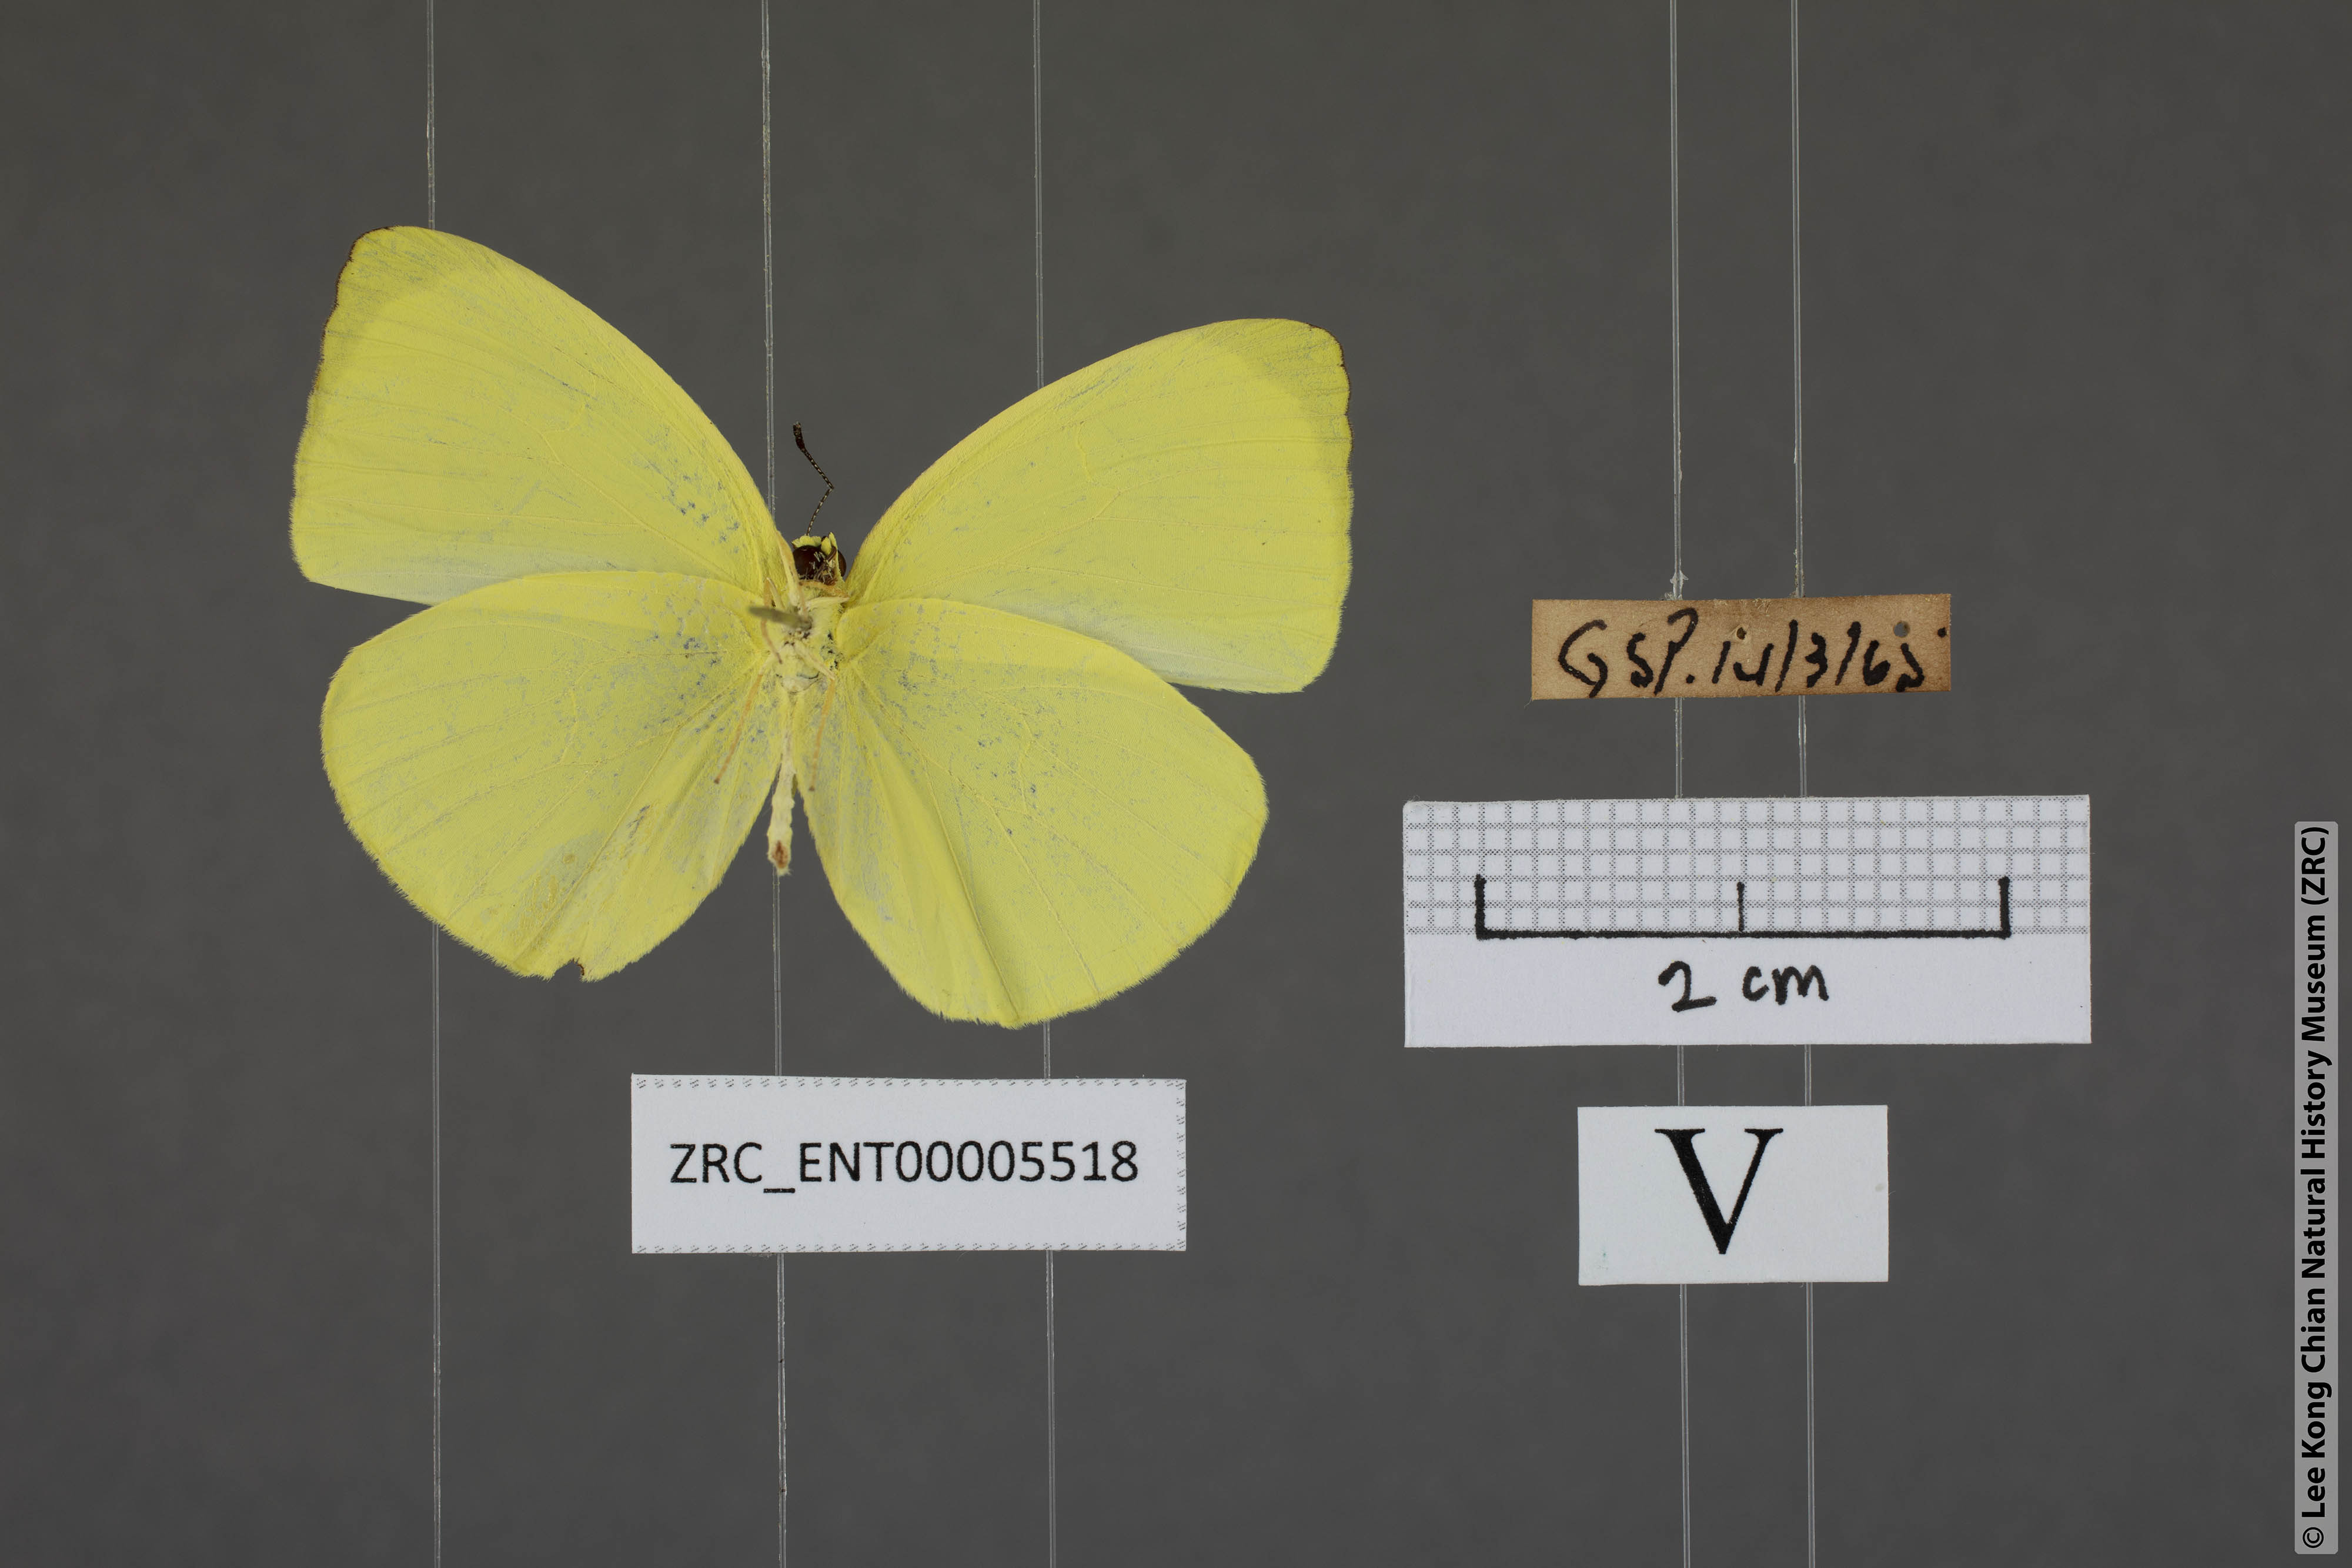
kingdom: Animalia
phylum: Arthropoda
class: Insecta
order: Lepidoptera
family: Pieridae
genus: Gandaca
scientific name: Gandaca harina
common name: Tree yellow
